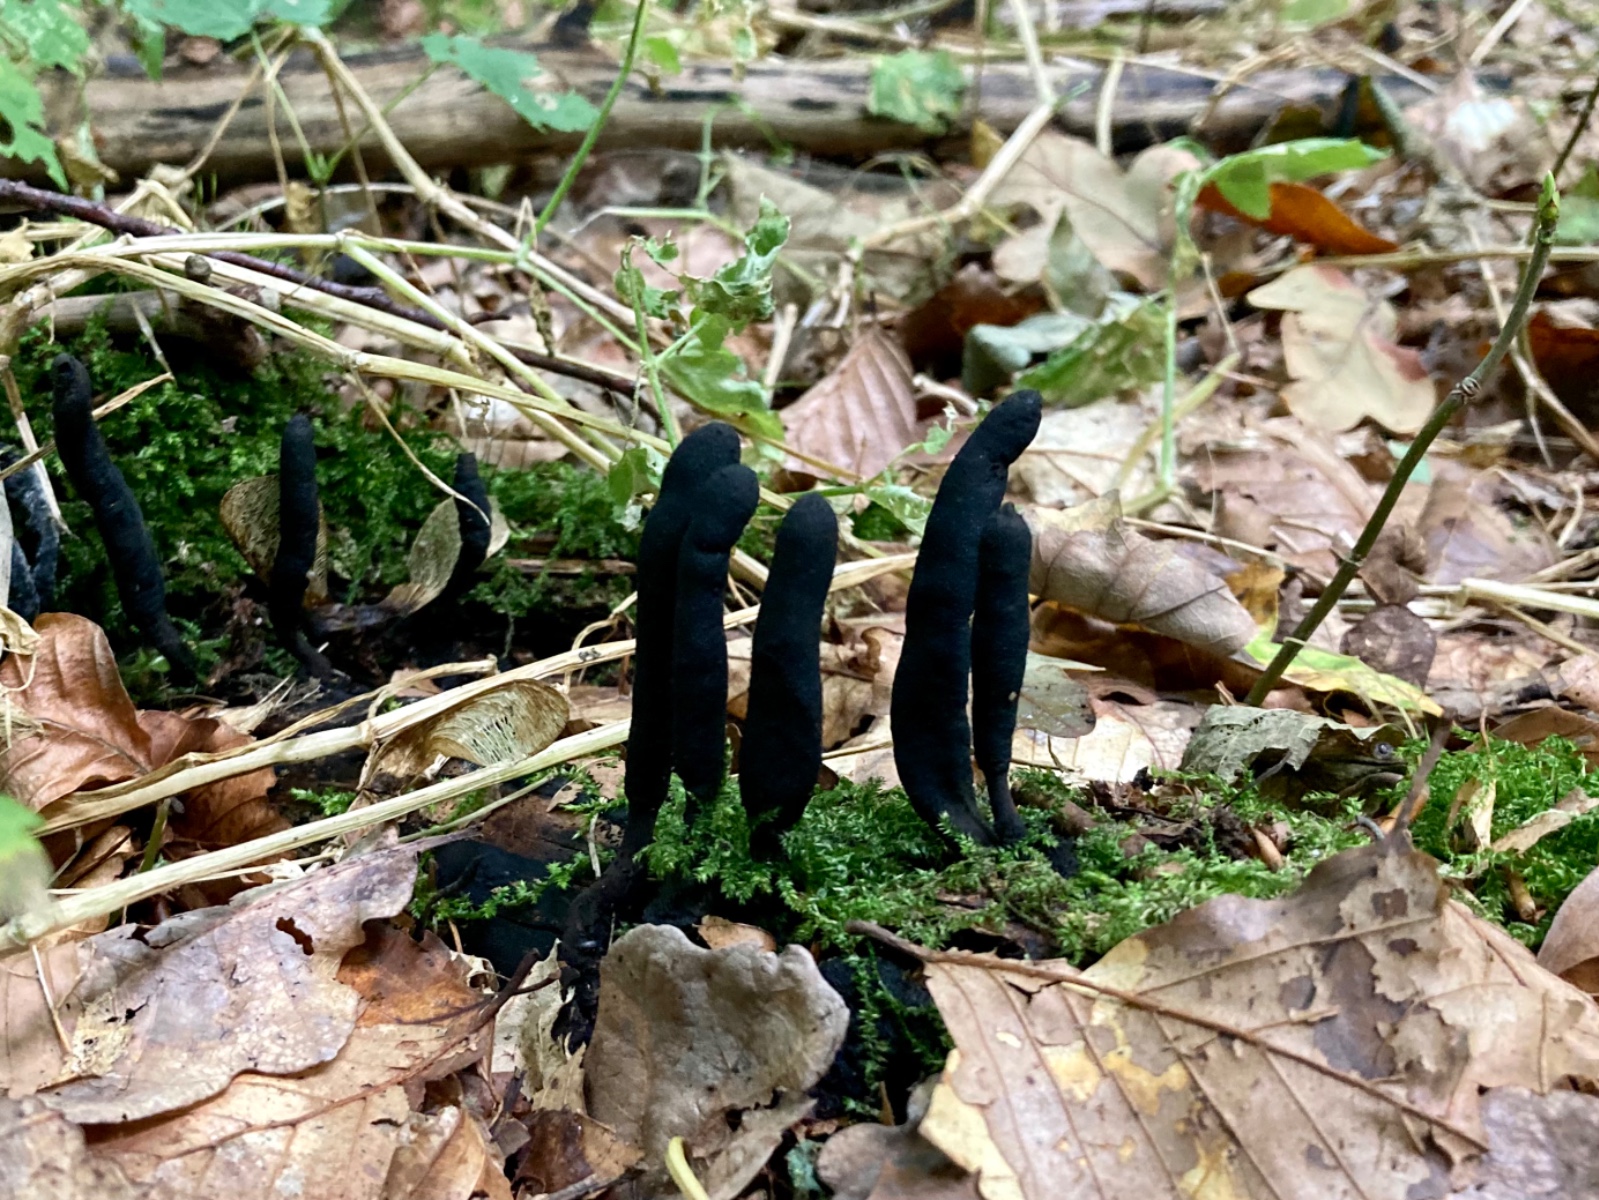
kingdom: Fungi
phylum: Ascomycota
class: Sordariomycetes
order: Xylariales
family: Xylariaceae
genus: Xylaria
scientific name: Xylaria longipes
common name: slank stødsvamp
